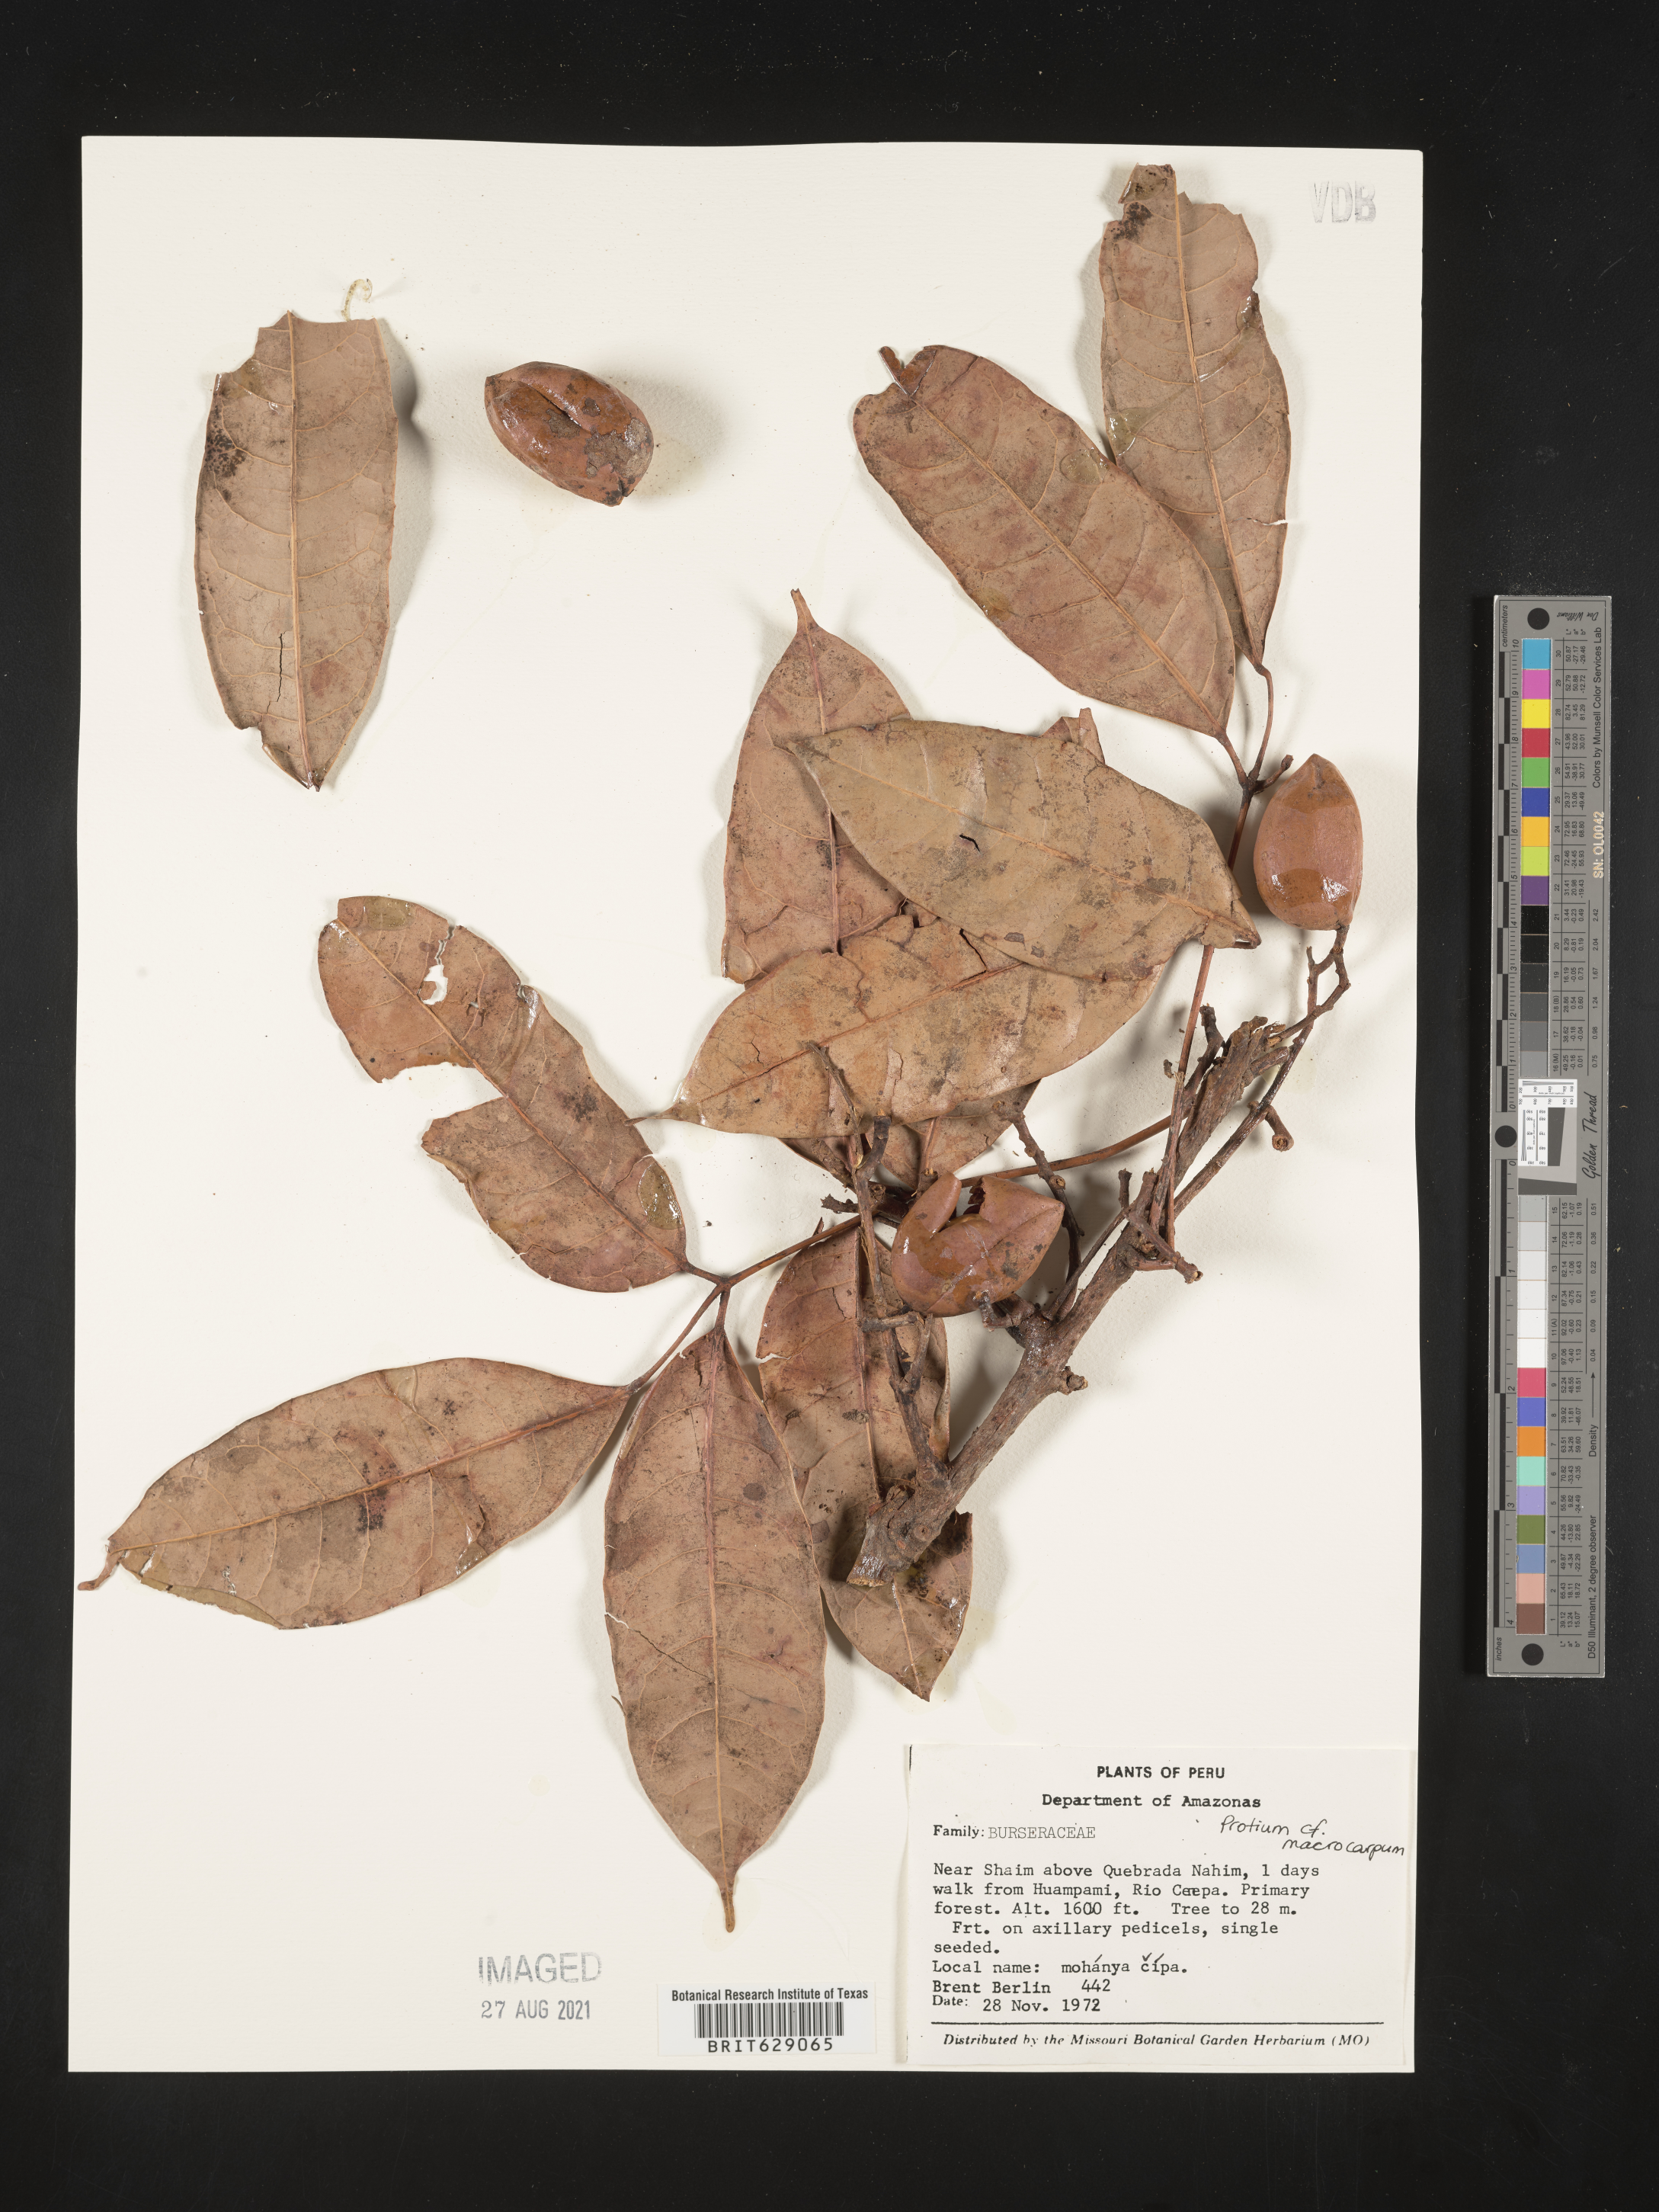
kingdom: Plantae
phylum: Tracheophyta
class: Magnoliopsida
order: Sapindales
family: Burseraceae
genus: Protium
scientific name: Protium macrocarpum
